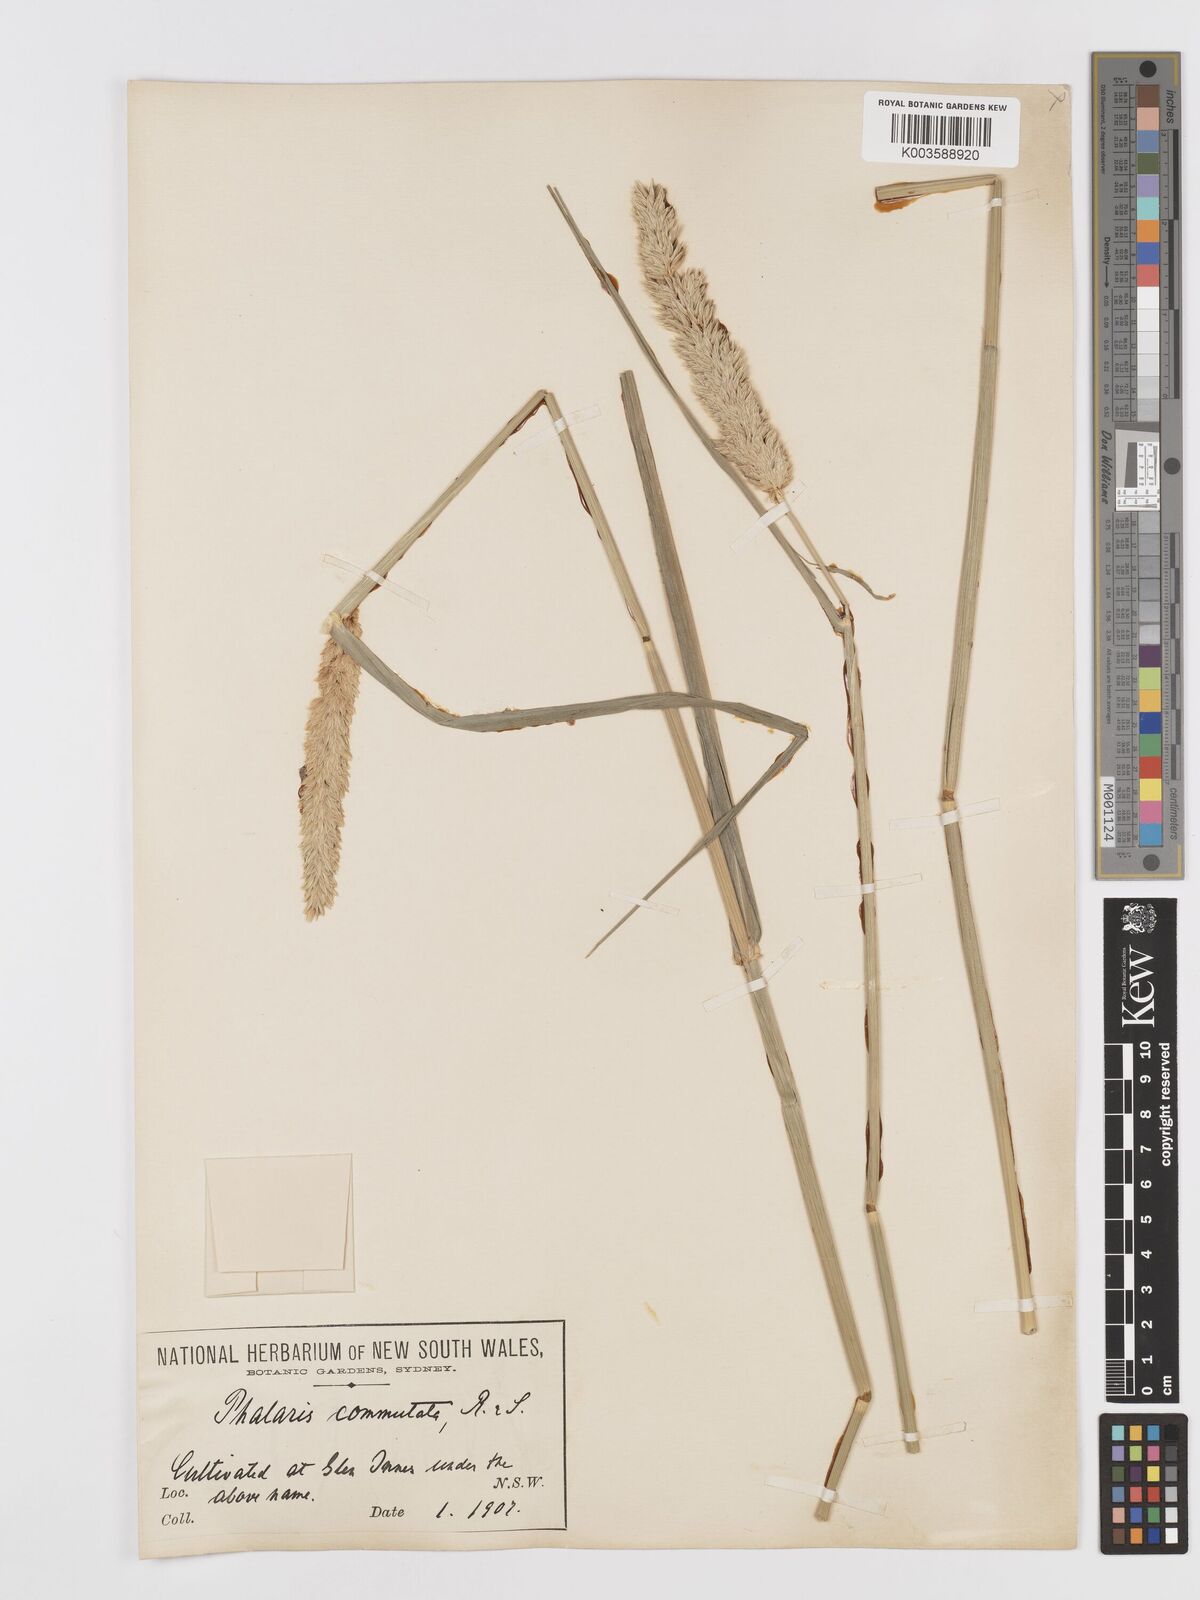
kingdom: Plantae
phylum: Tracheophyta
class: Liliopsida
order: Poales
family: Poaceae
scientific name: Poaceae
